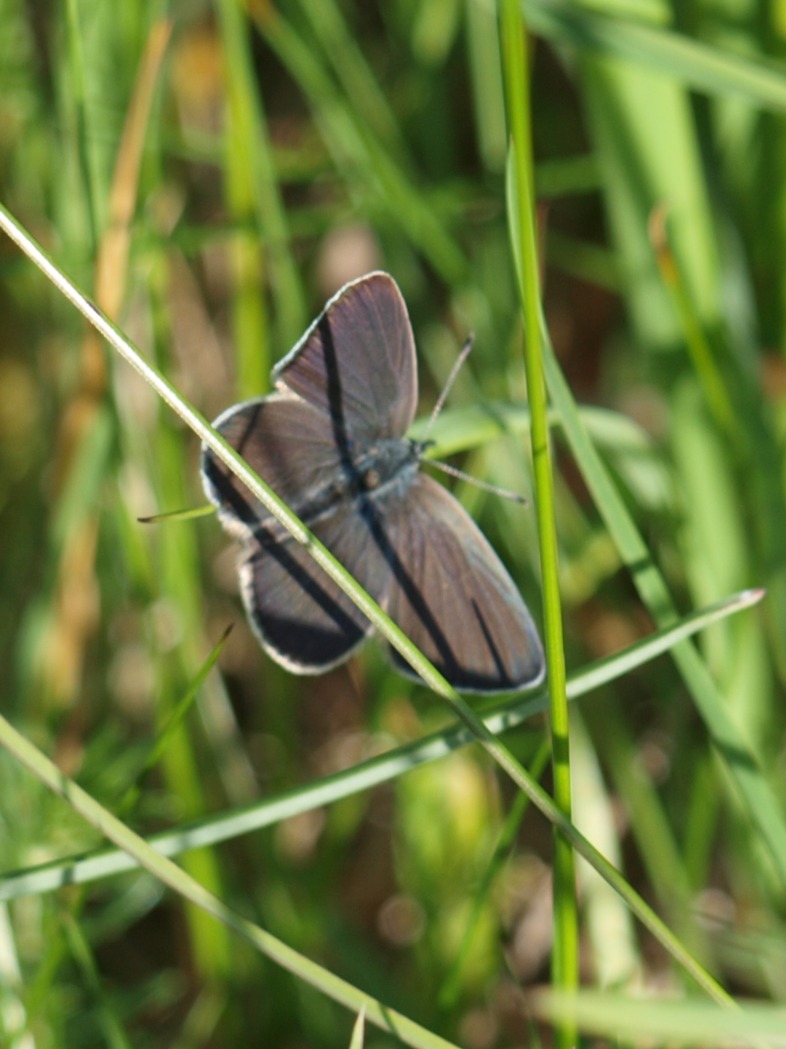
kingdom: Animalia
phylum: Arthropoda
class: Insecta
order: Lepidoptera
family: Lycaenidae
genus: Cupido
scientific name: Cupido minimus
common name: Dværgblåfugl
